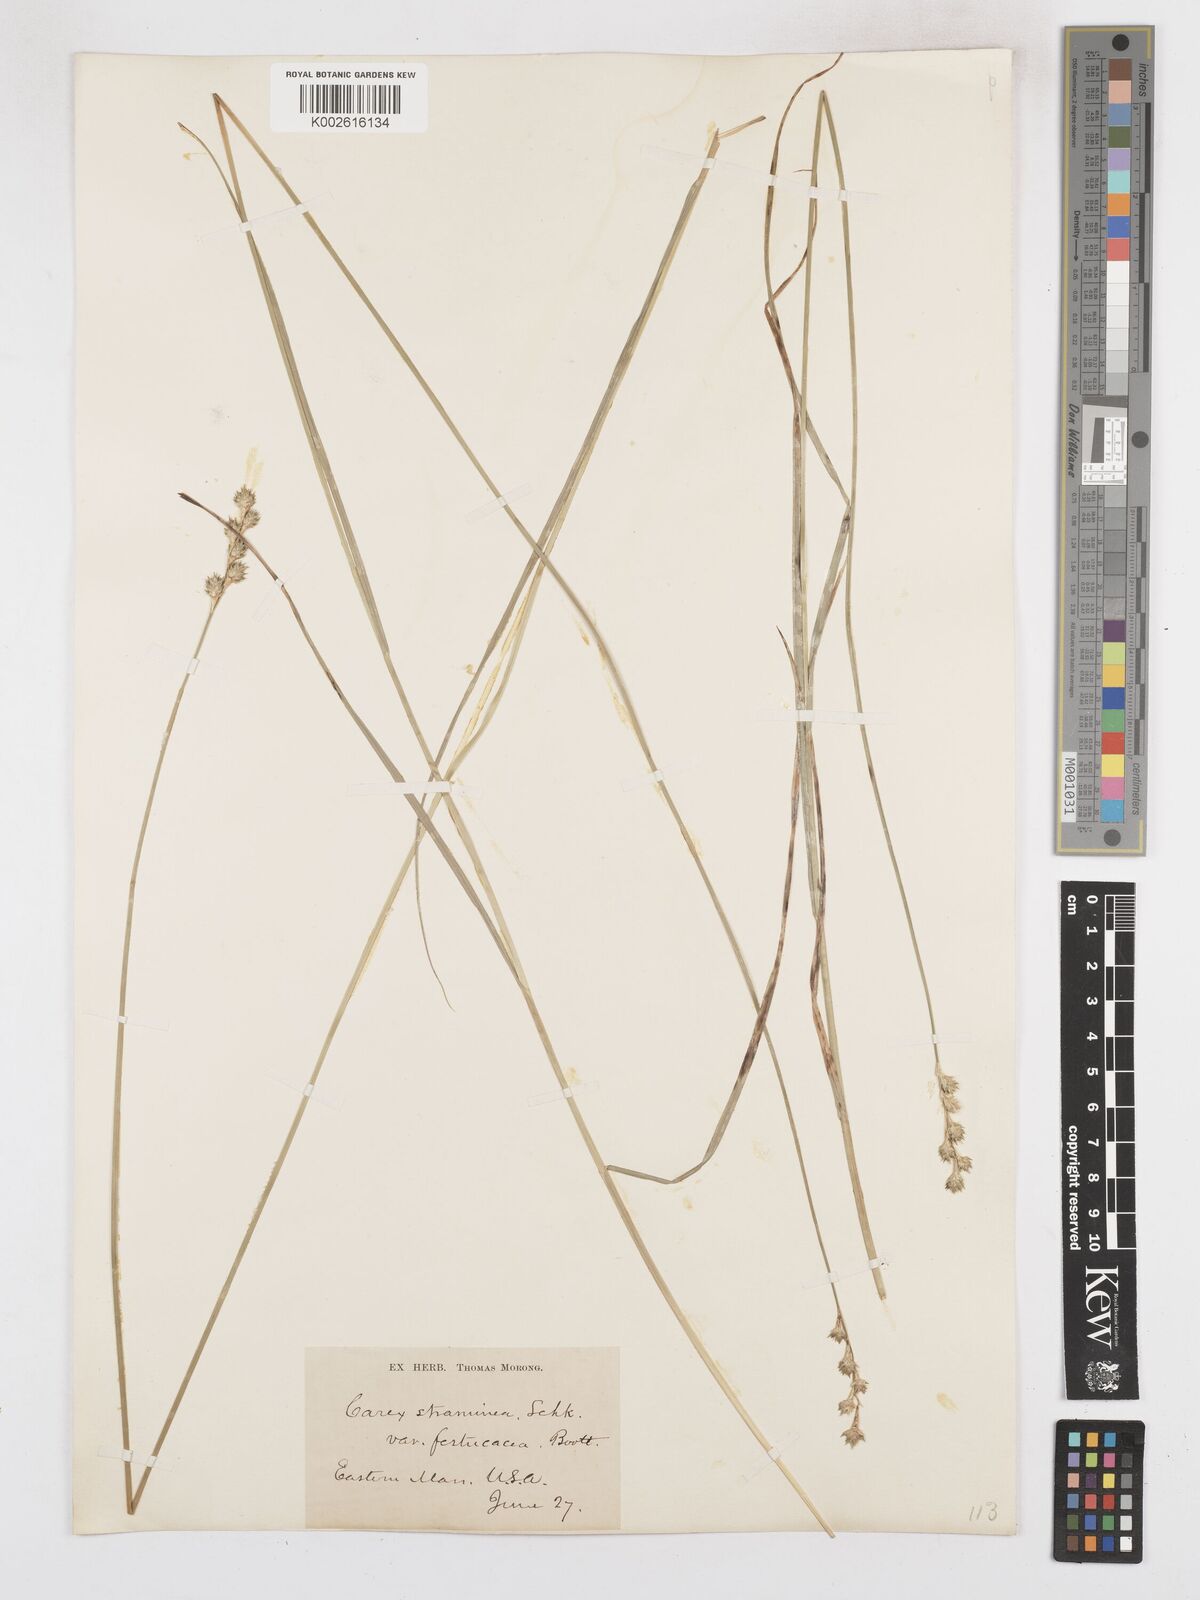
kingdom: Plantae
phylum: Tracheophyta
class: Liliopsida
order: Poales
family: Cyperaceae
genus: Carex
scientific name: Carex brevior
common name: Brevior sedge
